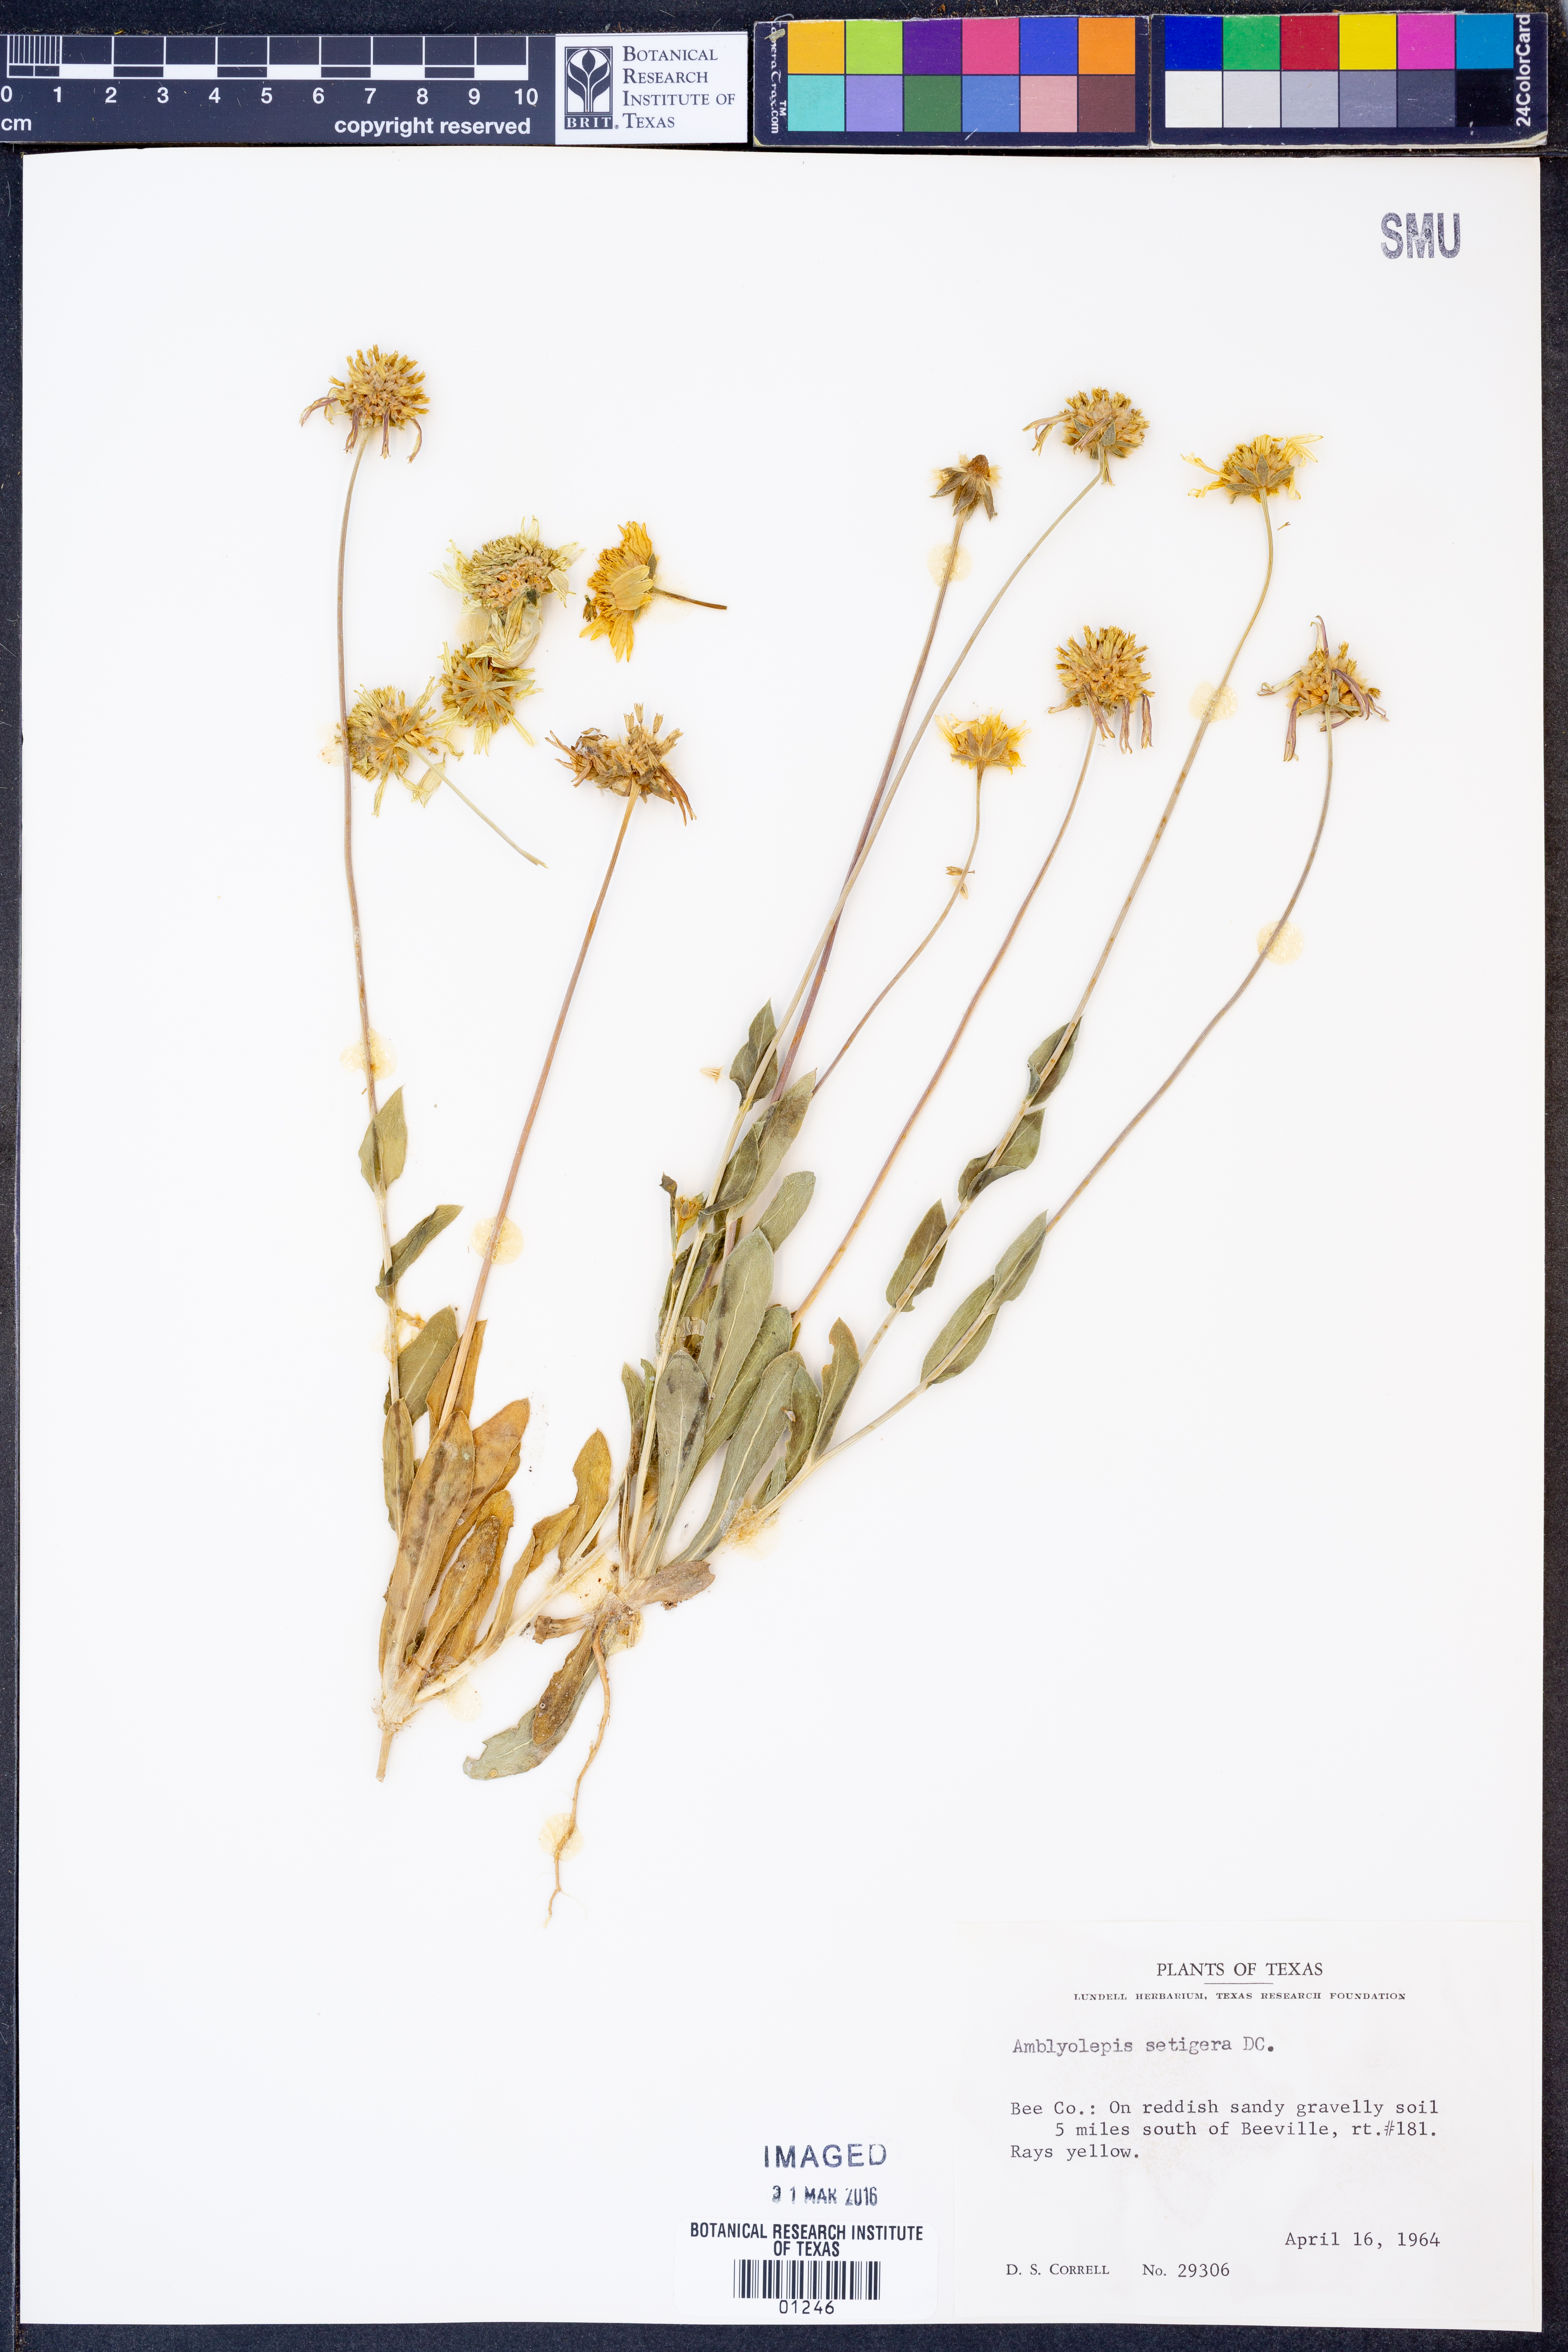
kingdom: Plantae
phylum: Tracheophyta
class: Magnoliopsida
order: Asterales
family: Asteraceae
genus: Amblyolepis
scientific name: Amblyolepis setigera
